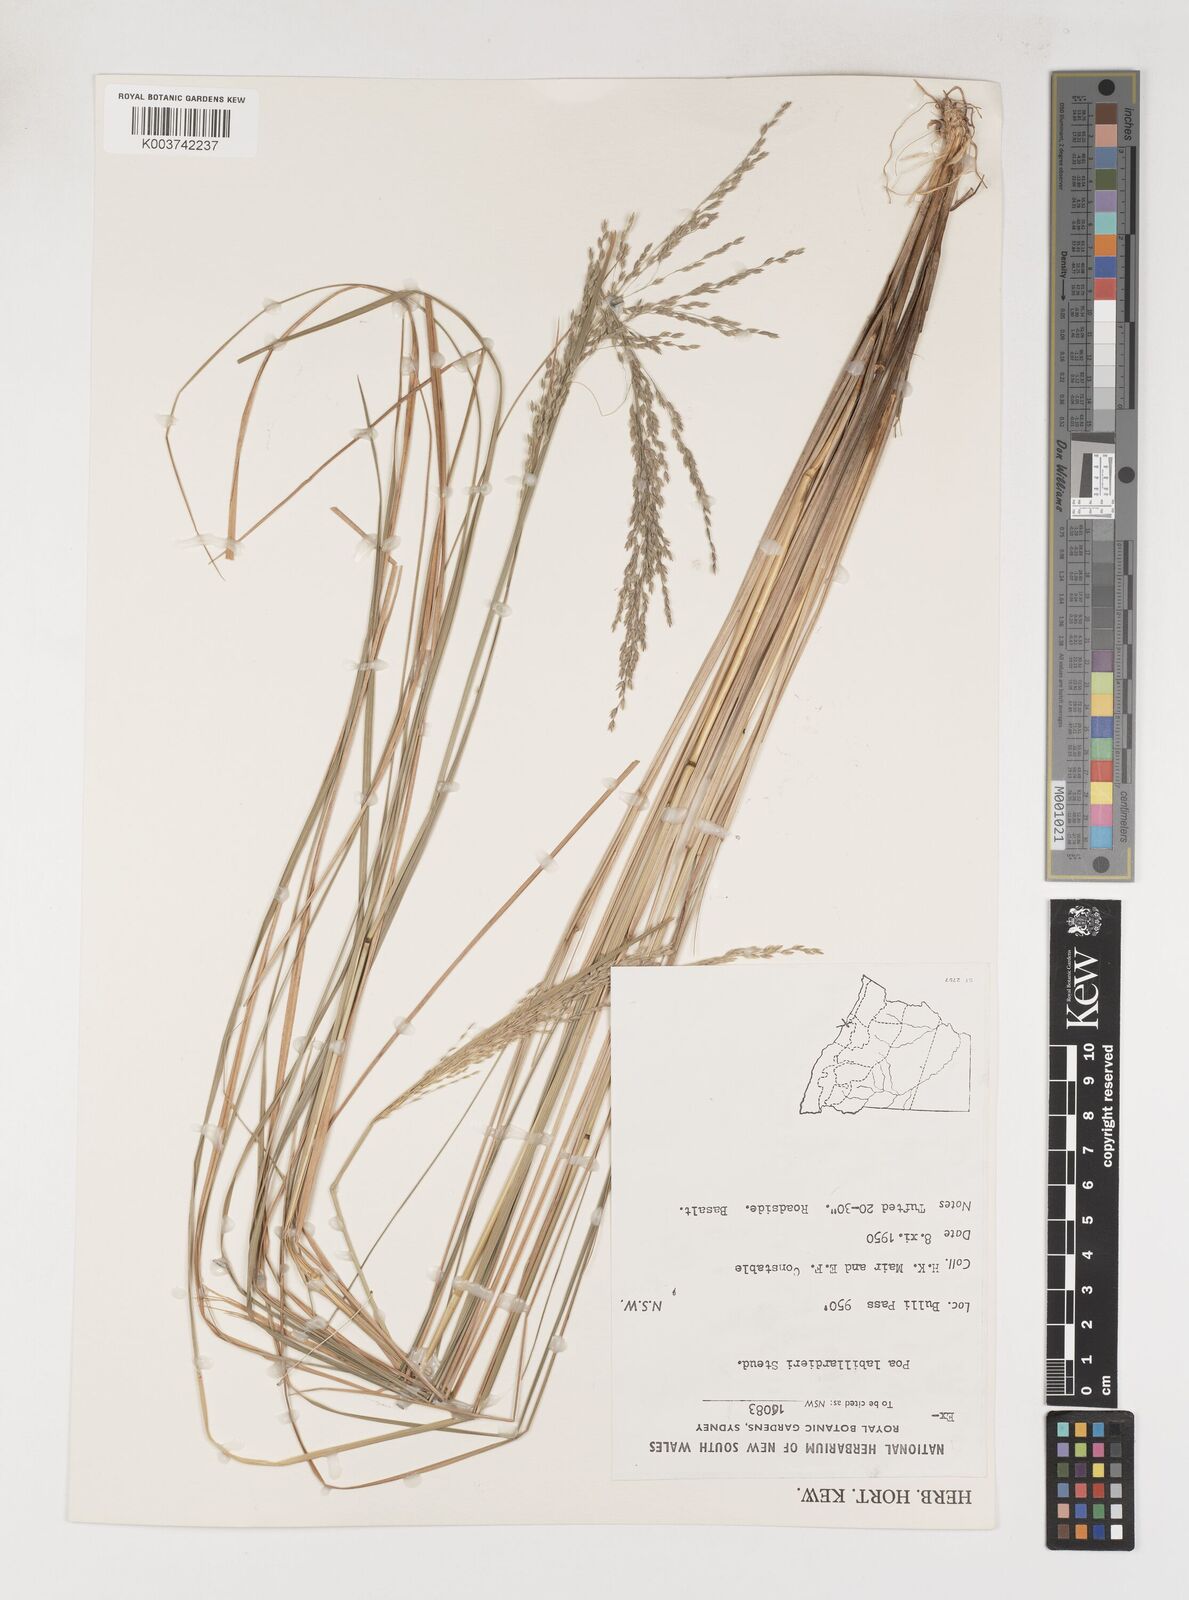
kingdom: Plantae
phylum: Tracheophyta
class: Liliopsida
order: Poales
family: Poaceae
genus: Poa
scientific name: Poa labillardierei
